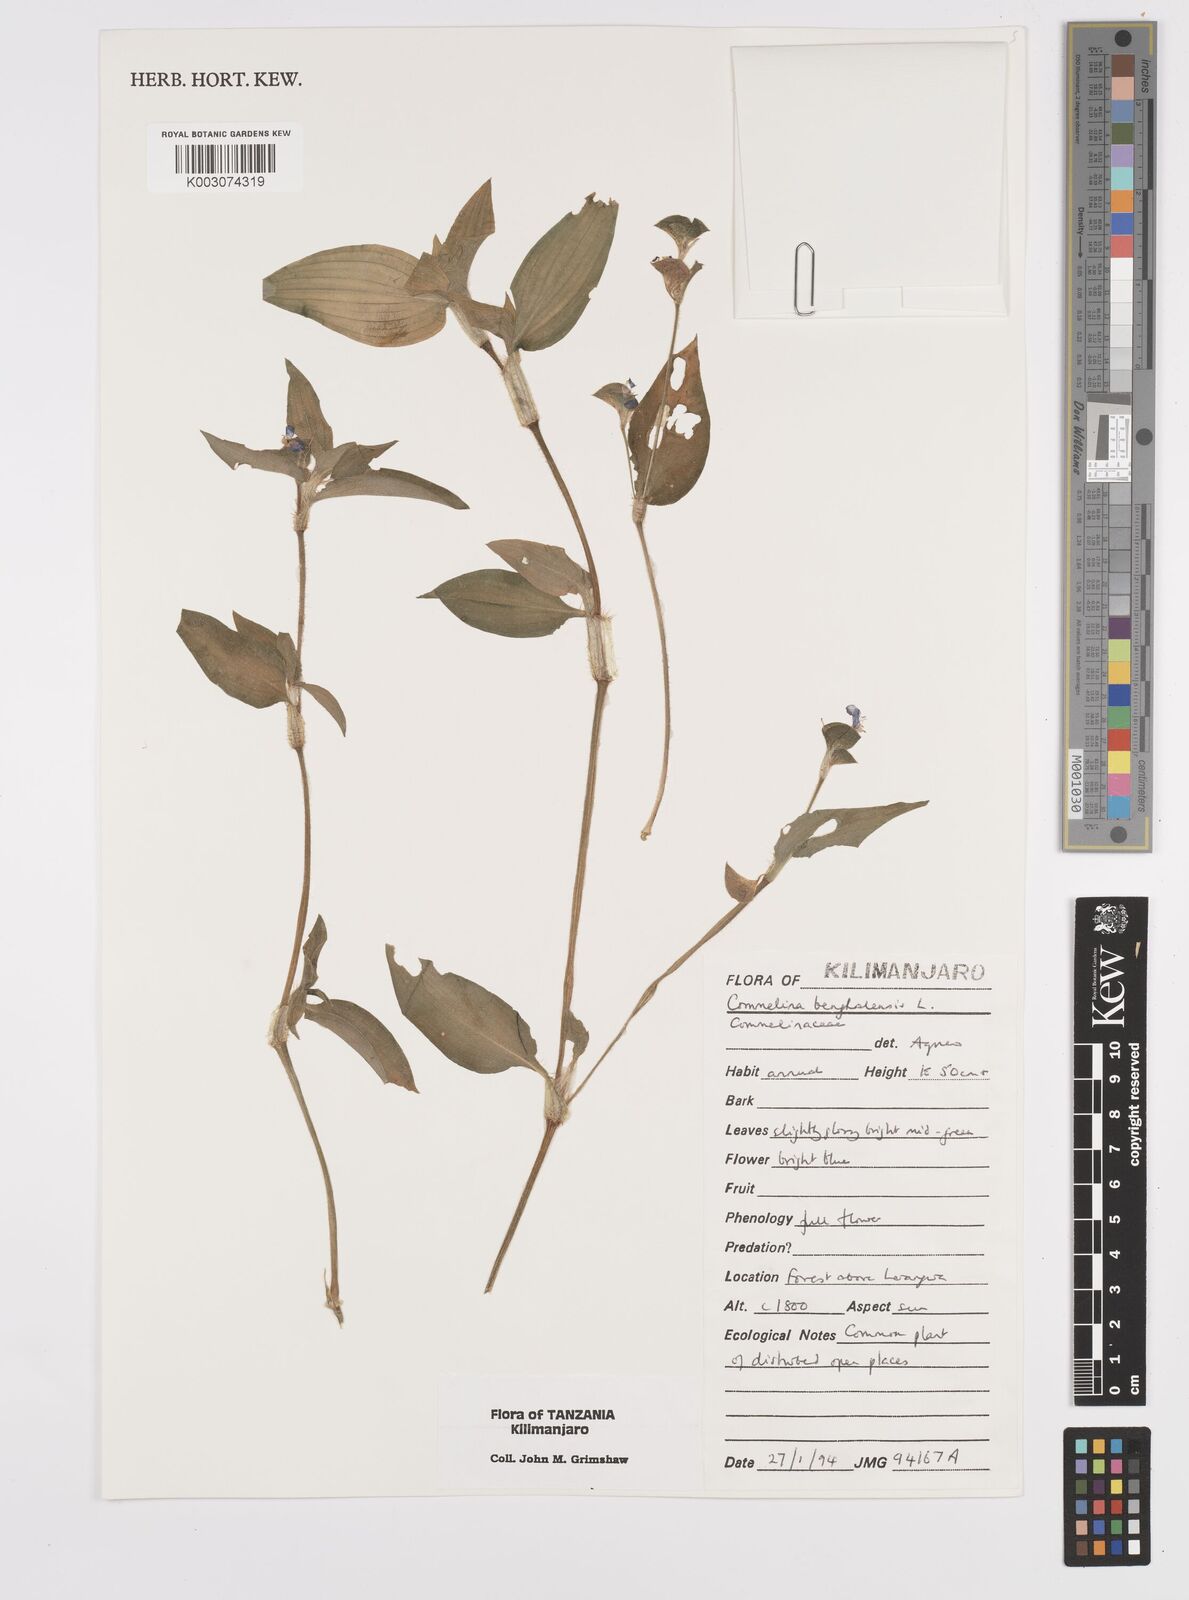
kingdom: Plantae
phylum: Tracheophyta
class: Liliopsida
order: Commelinales
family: Commelinaceae
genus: Commelina
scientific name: Commelina benghalensis
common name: Jio
